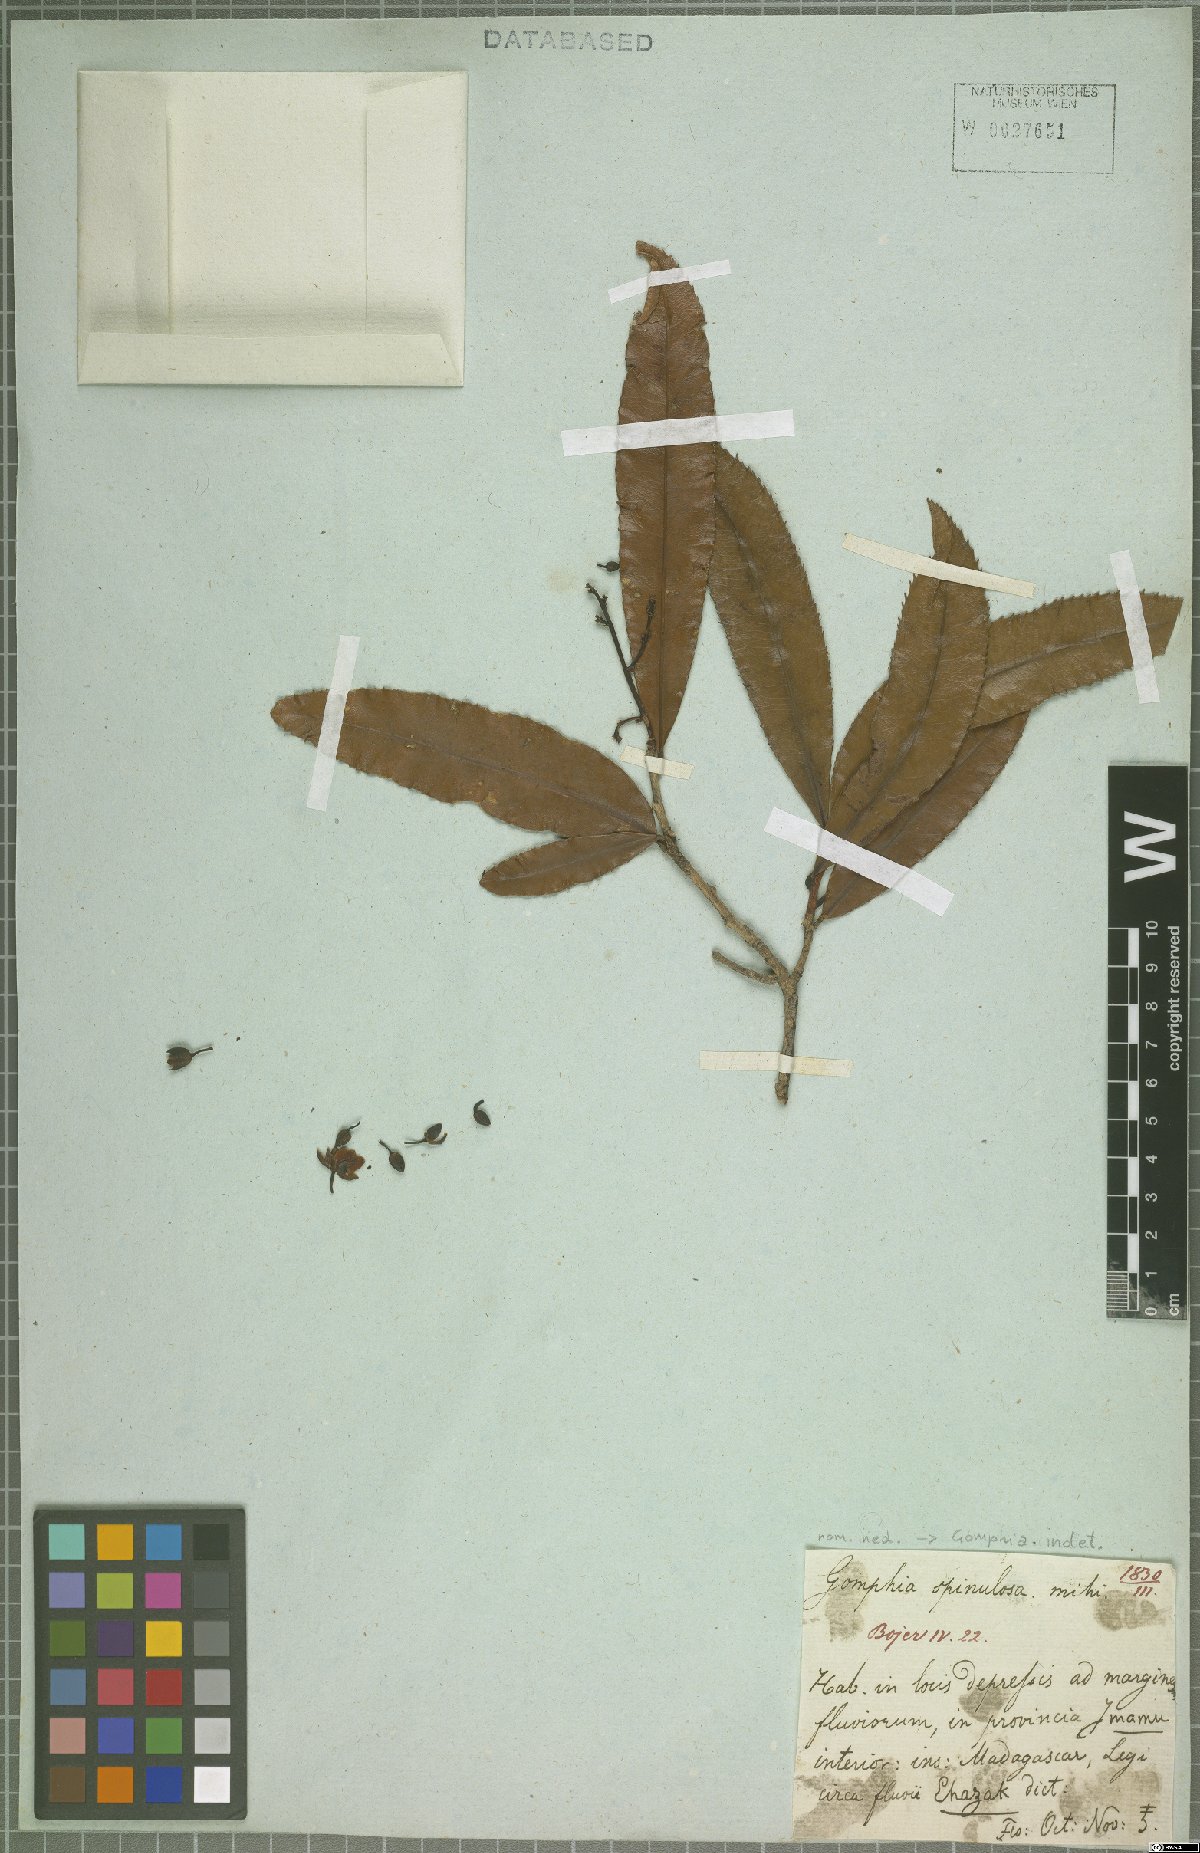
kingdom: Plantae
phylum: Tracheophyta
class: Magnoliopsida
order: Malpighiales
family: Ochnaceae
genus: Gomphia
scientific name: Gomphia
